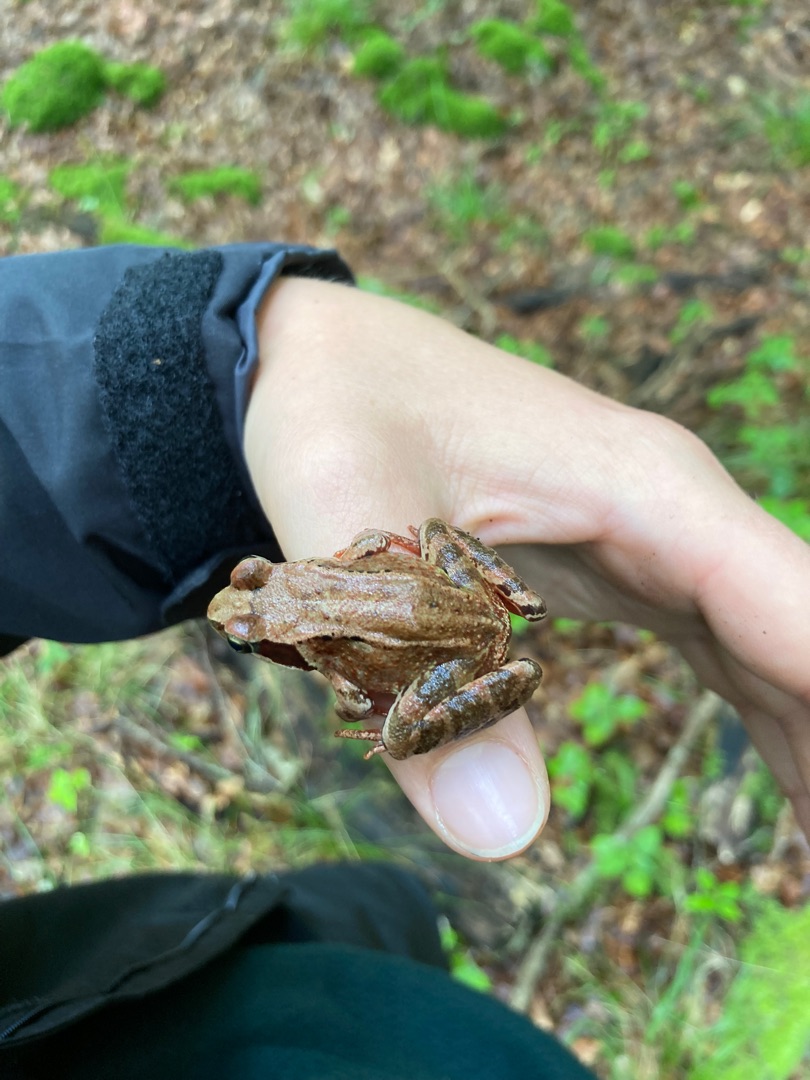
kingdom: Animalia
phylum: Chordata
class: Amphibia
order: Anura
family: Ranidae
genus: Rana
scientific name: Rana temporaria
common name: Butsnudet frø
